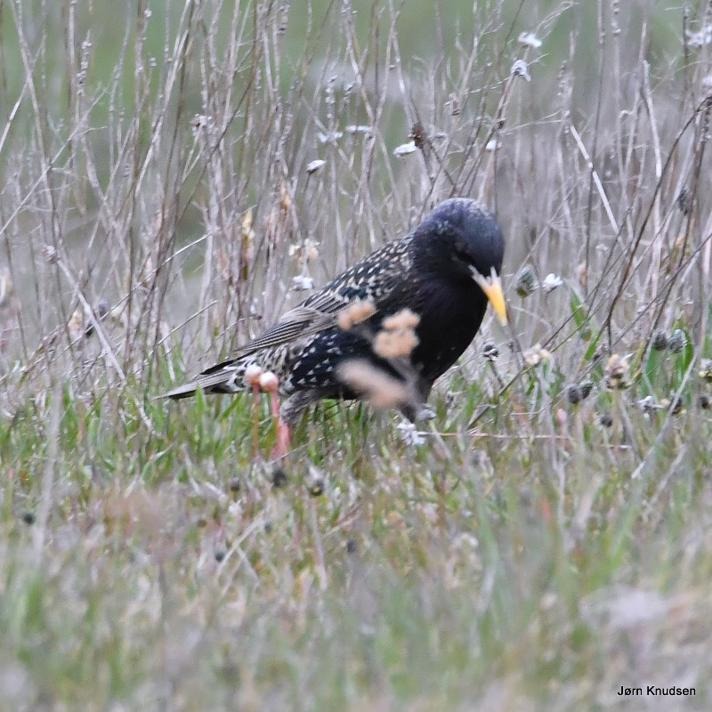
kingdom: Animalia
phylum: Chordata
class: Aves
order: Passeriformes
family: Sturnidae
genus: Sturnus
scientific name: Sturnus vulgaris
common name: Stær
